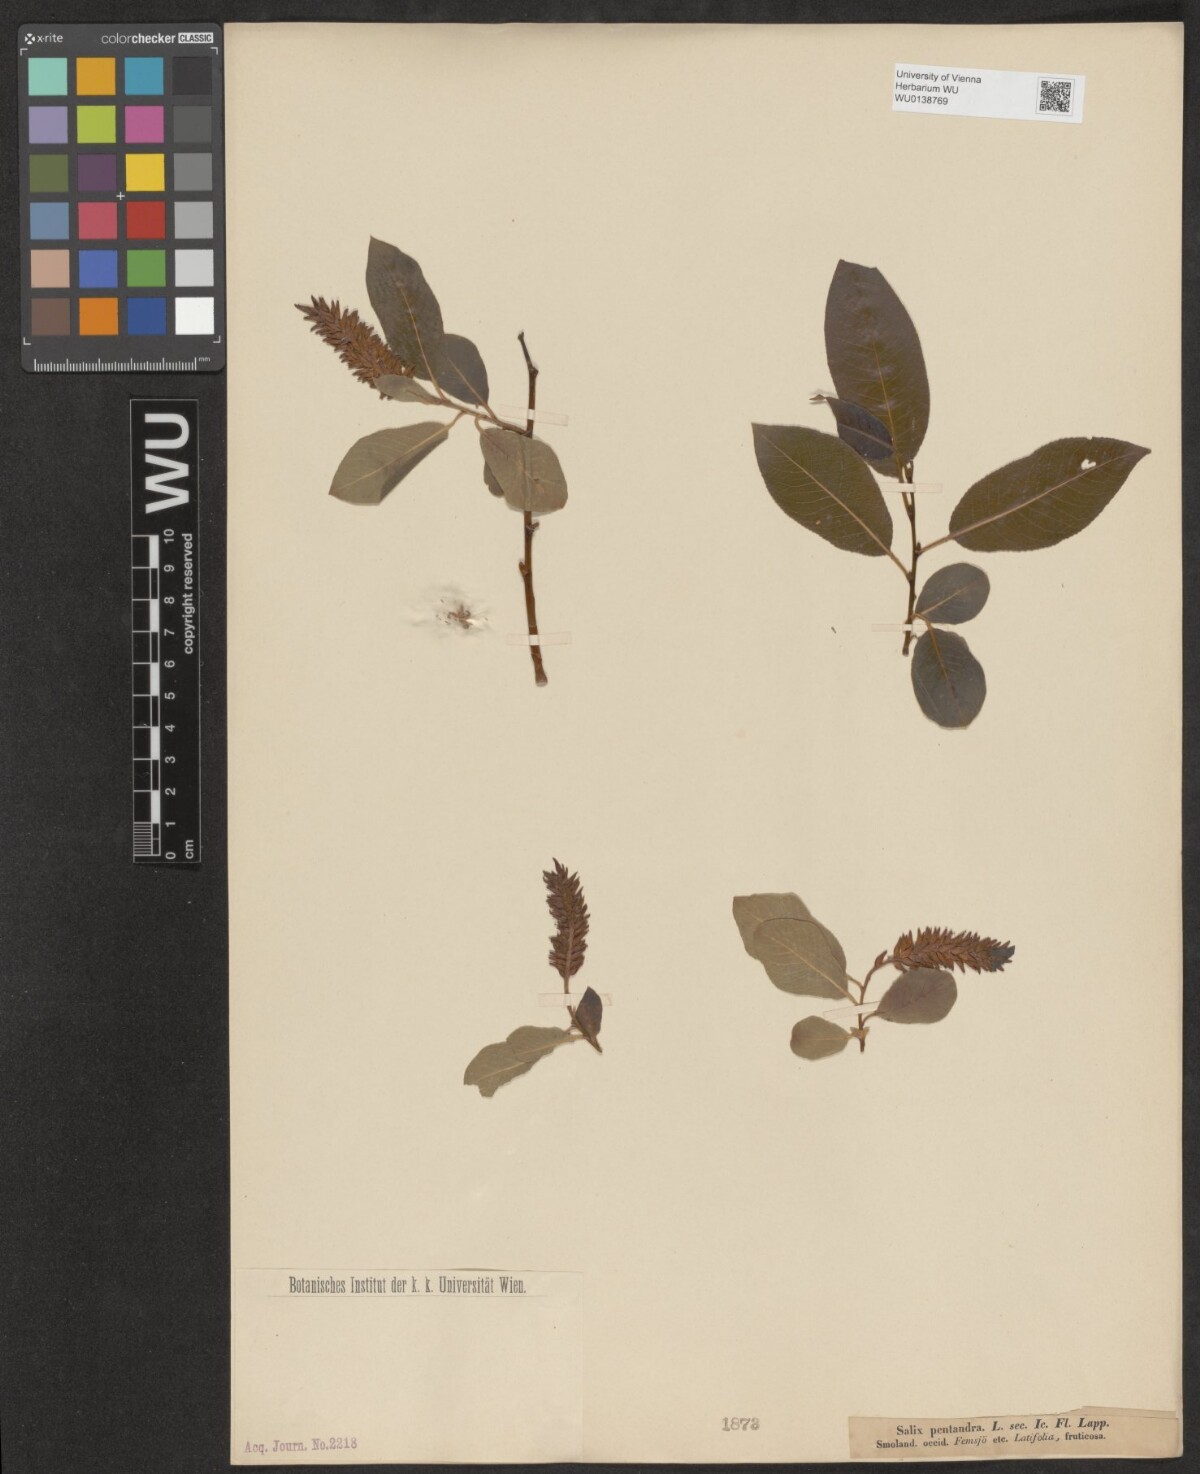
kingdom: Plantae
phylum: Tracheophyta
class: Magnoliopsida
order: Malpighiales
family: Salicaceae
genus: Salix
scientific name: Salix pentandra
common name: Bay willow
